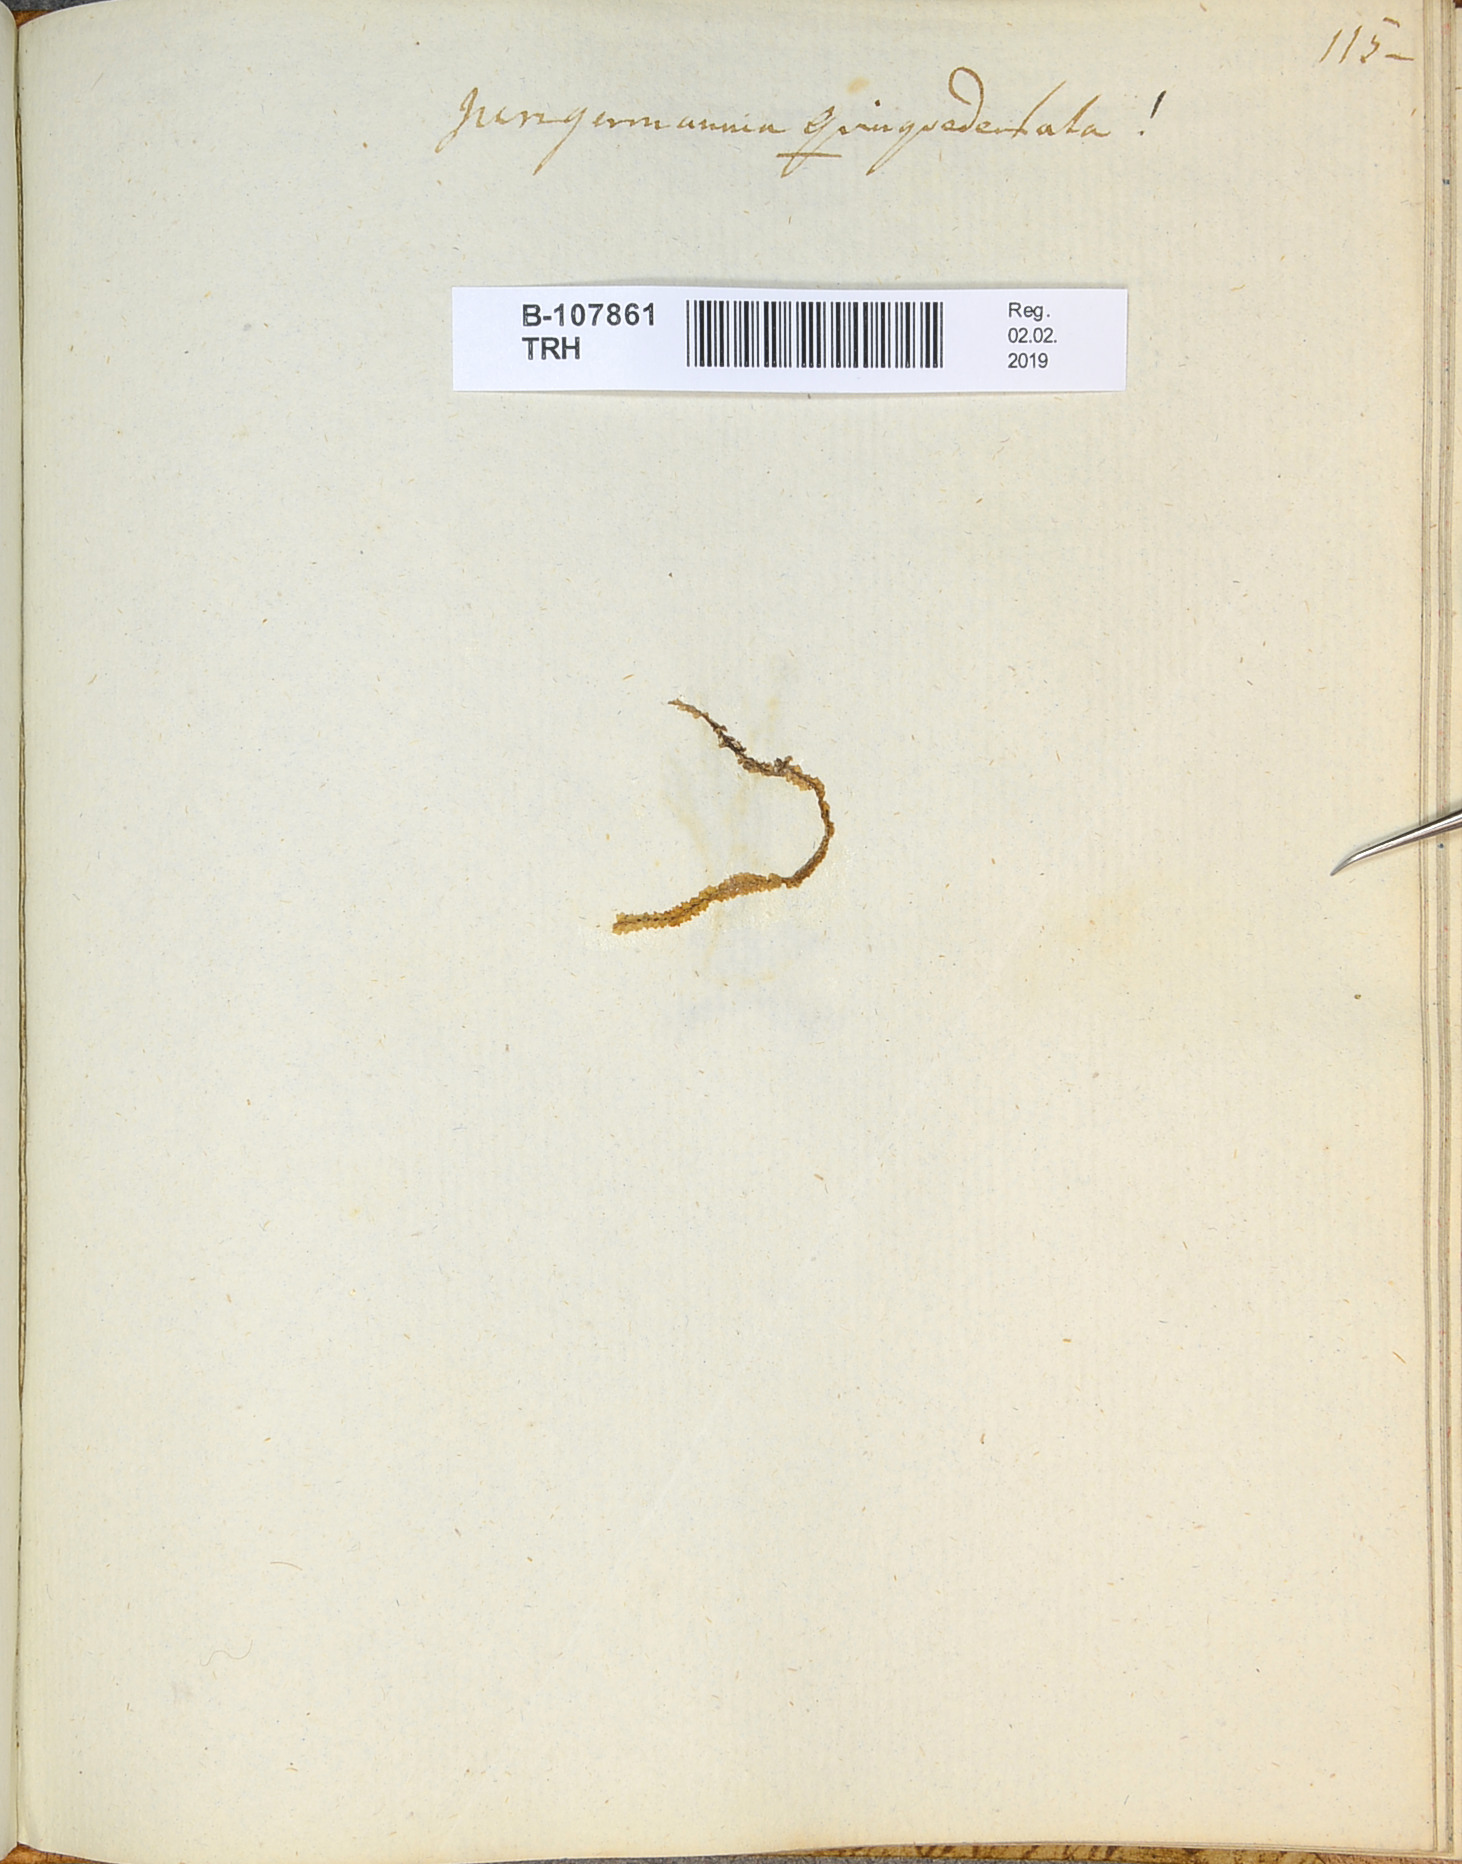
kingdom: Plantae
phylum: Marchantiophyta
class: Jungermanniopsida
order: Jungermanniales
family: Lophoziaceae
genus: Trilophozia
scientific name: Trilophozia quinquedentata
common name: Large notchwort
